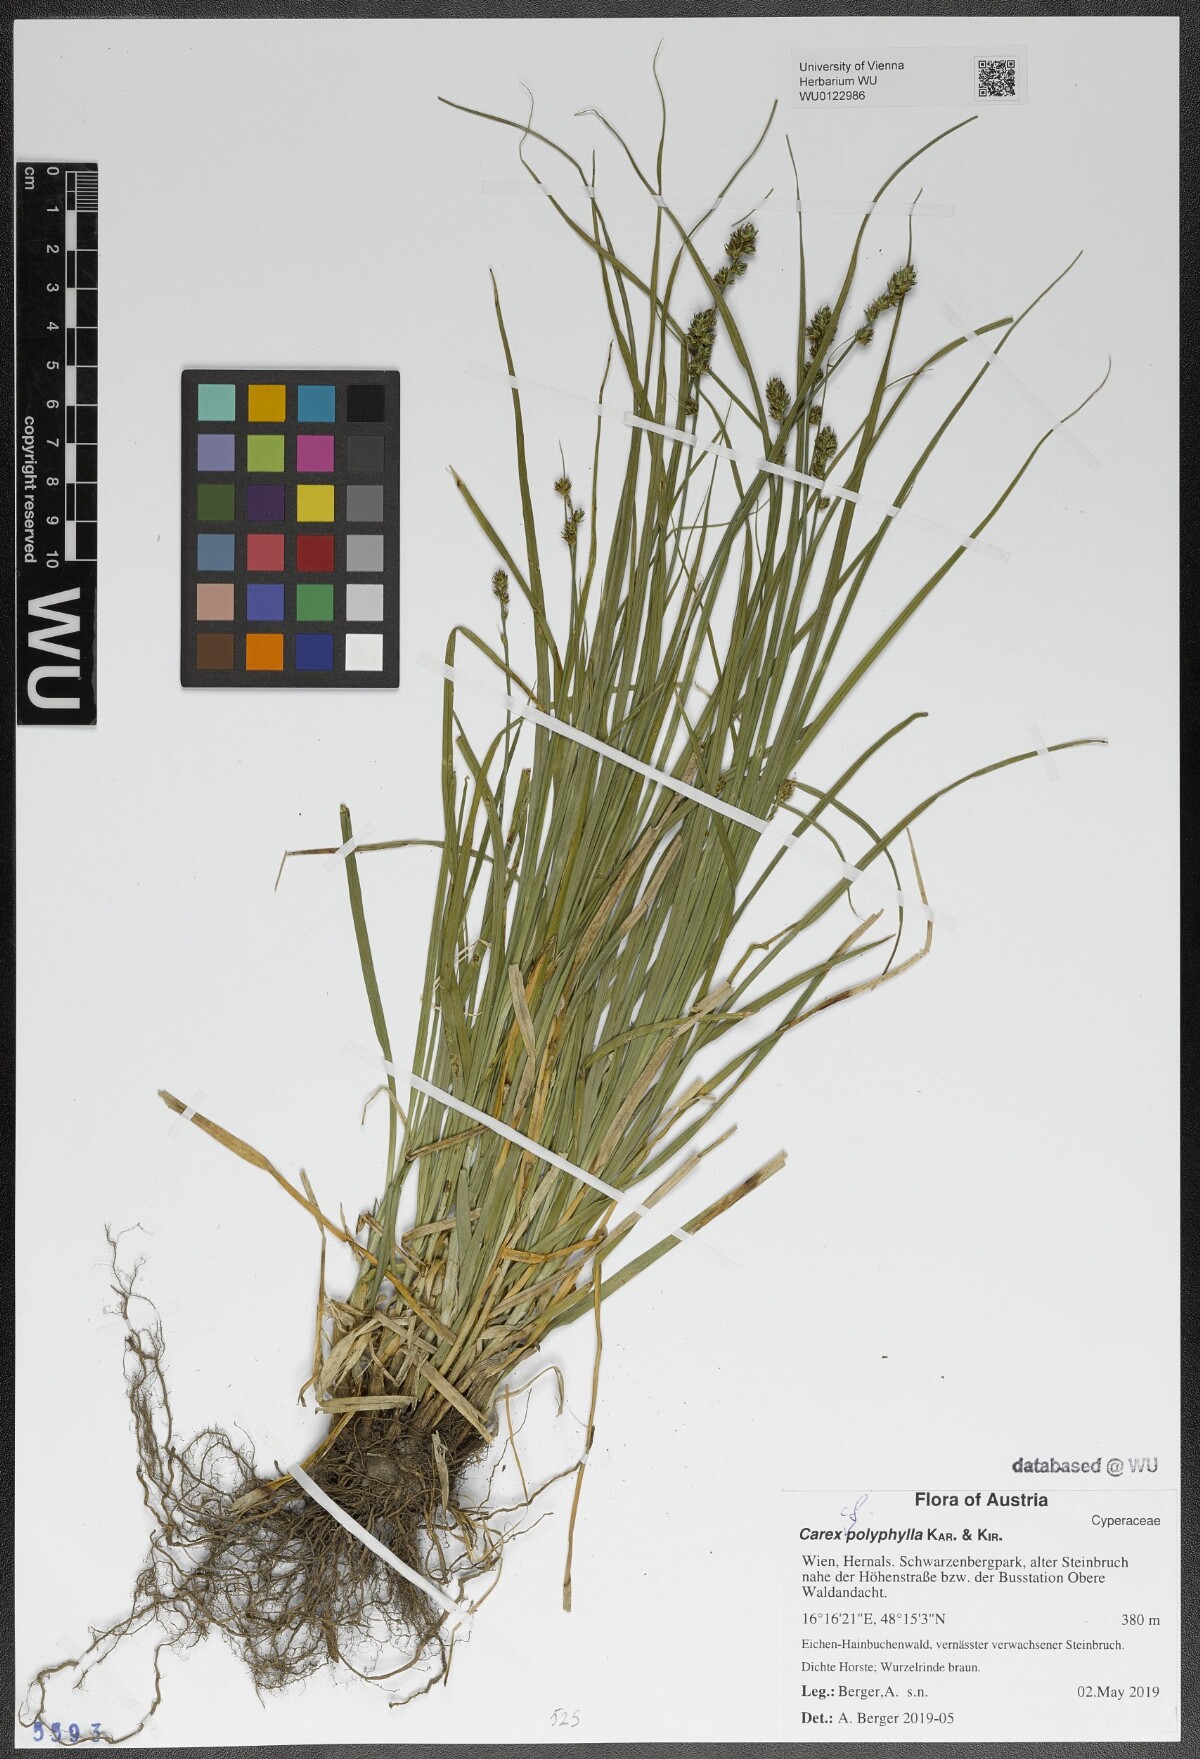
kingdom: Plantae
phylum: Tracheophyta
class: Liliopsida
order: Poales
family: Cyperaceae
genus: Carex
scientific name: Carex polyphylla
